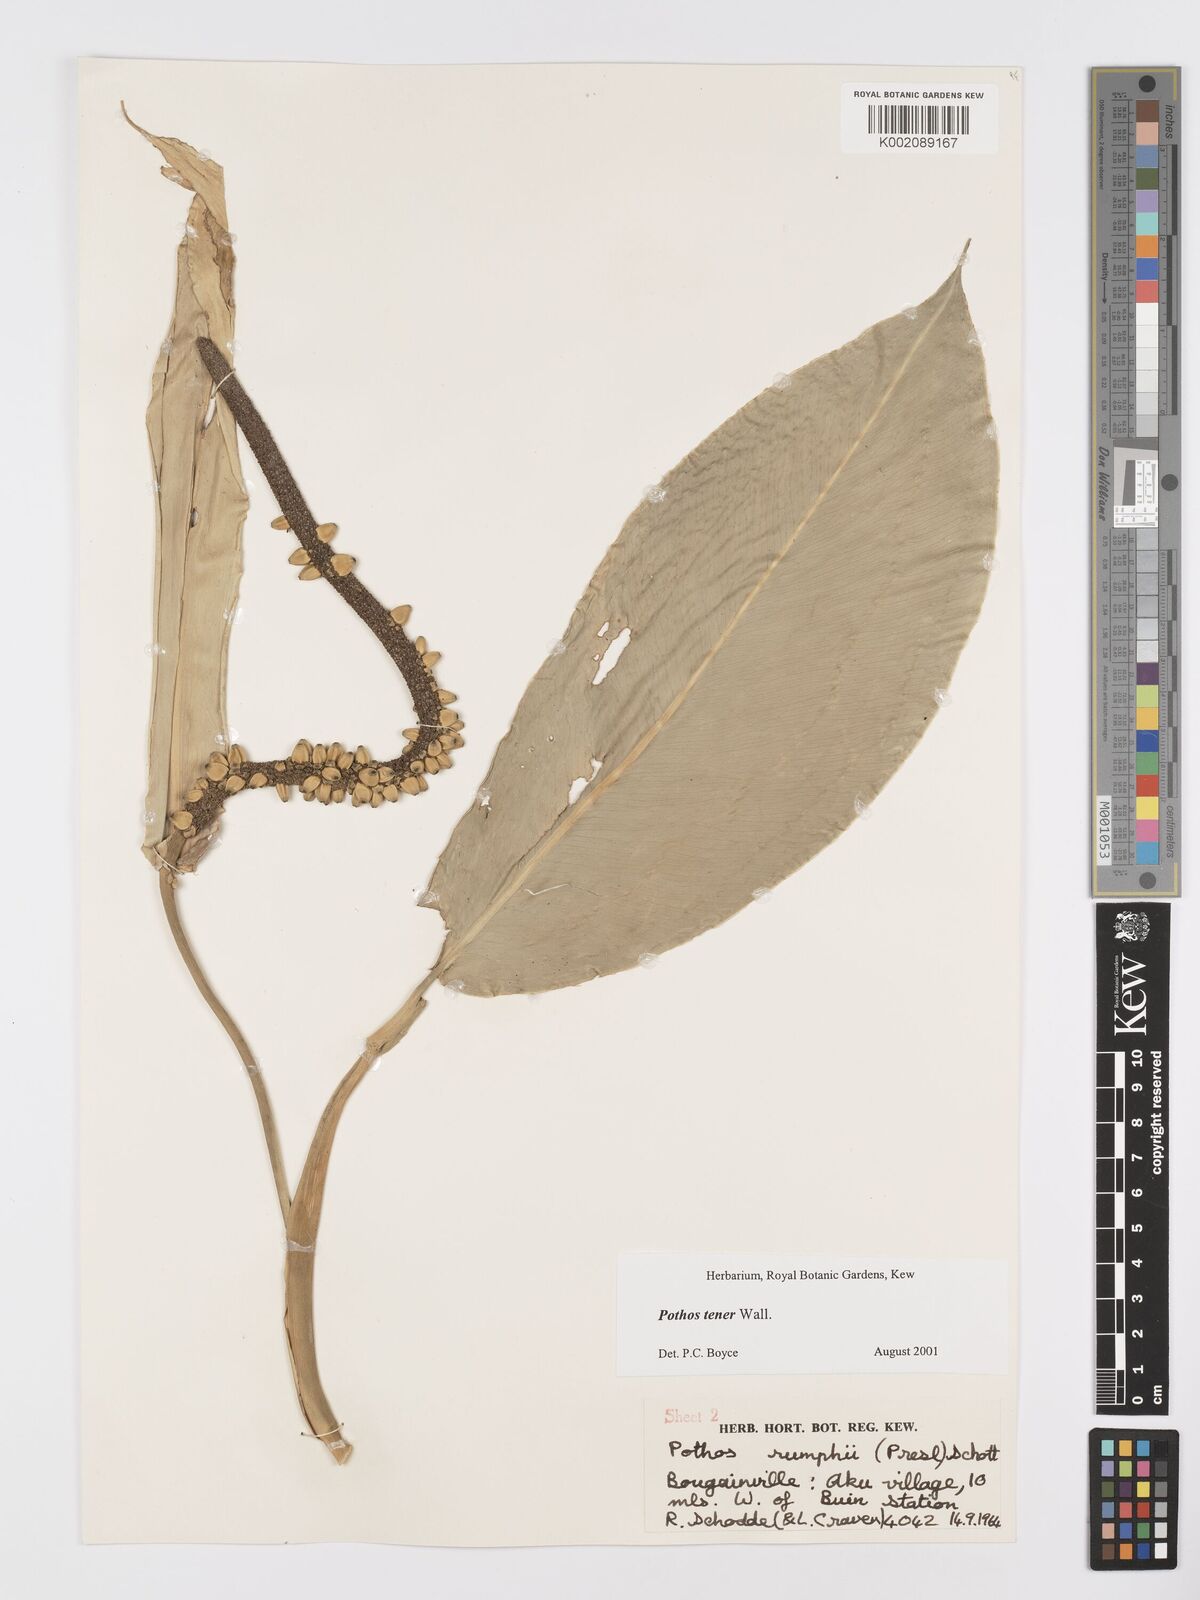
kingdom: Plantae
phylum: Tracheophyta
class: Liliopsida
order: Alismatales
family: Araceae
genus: Pothos
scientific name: Pothos tener
